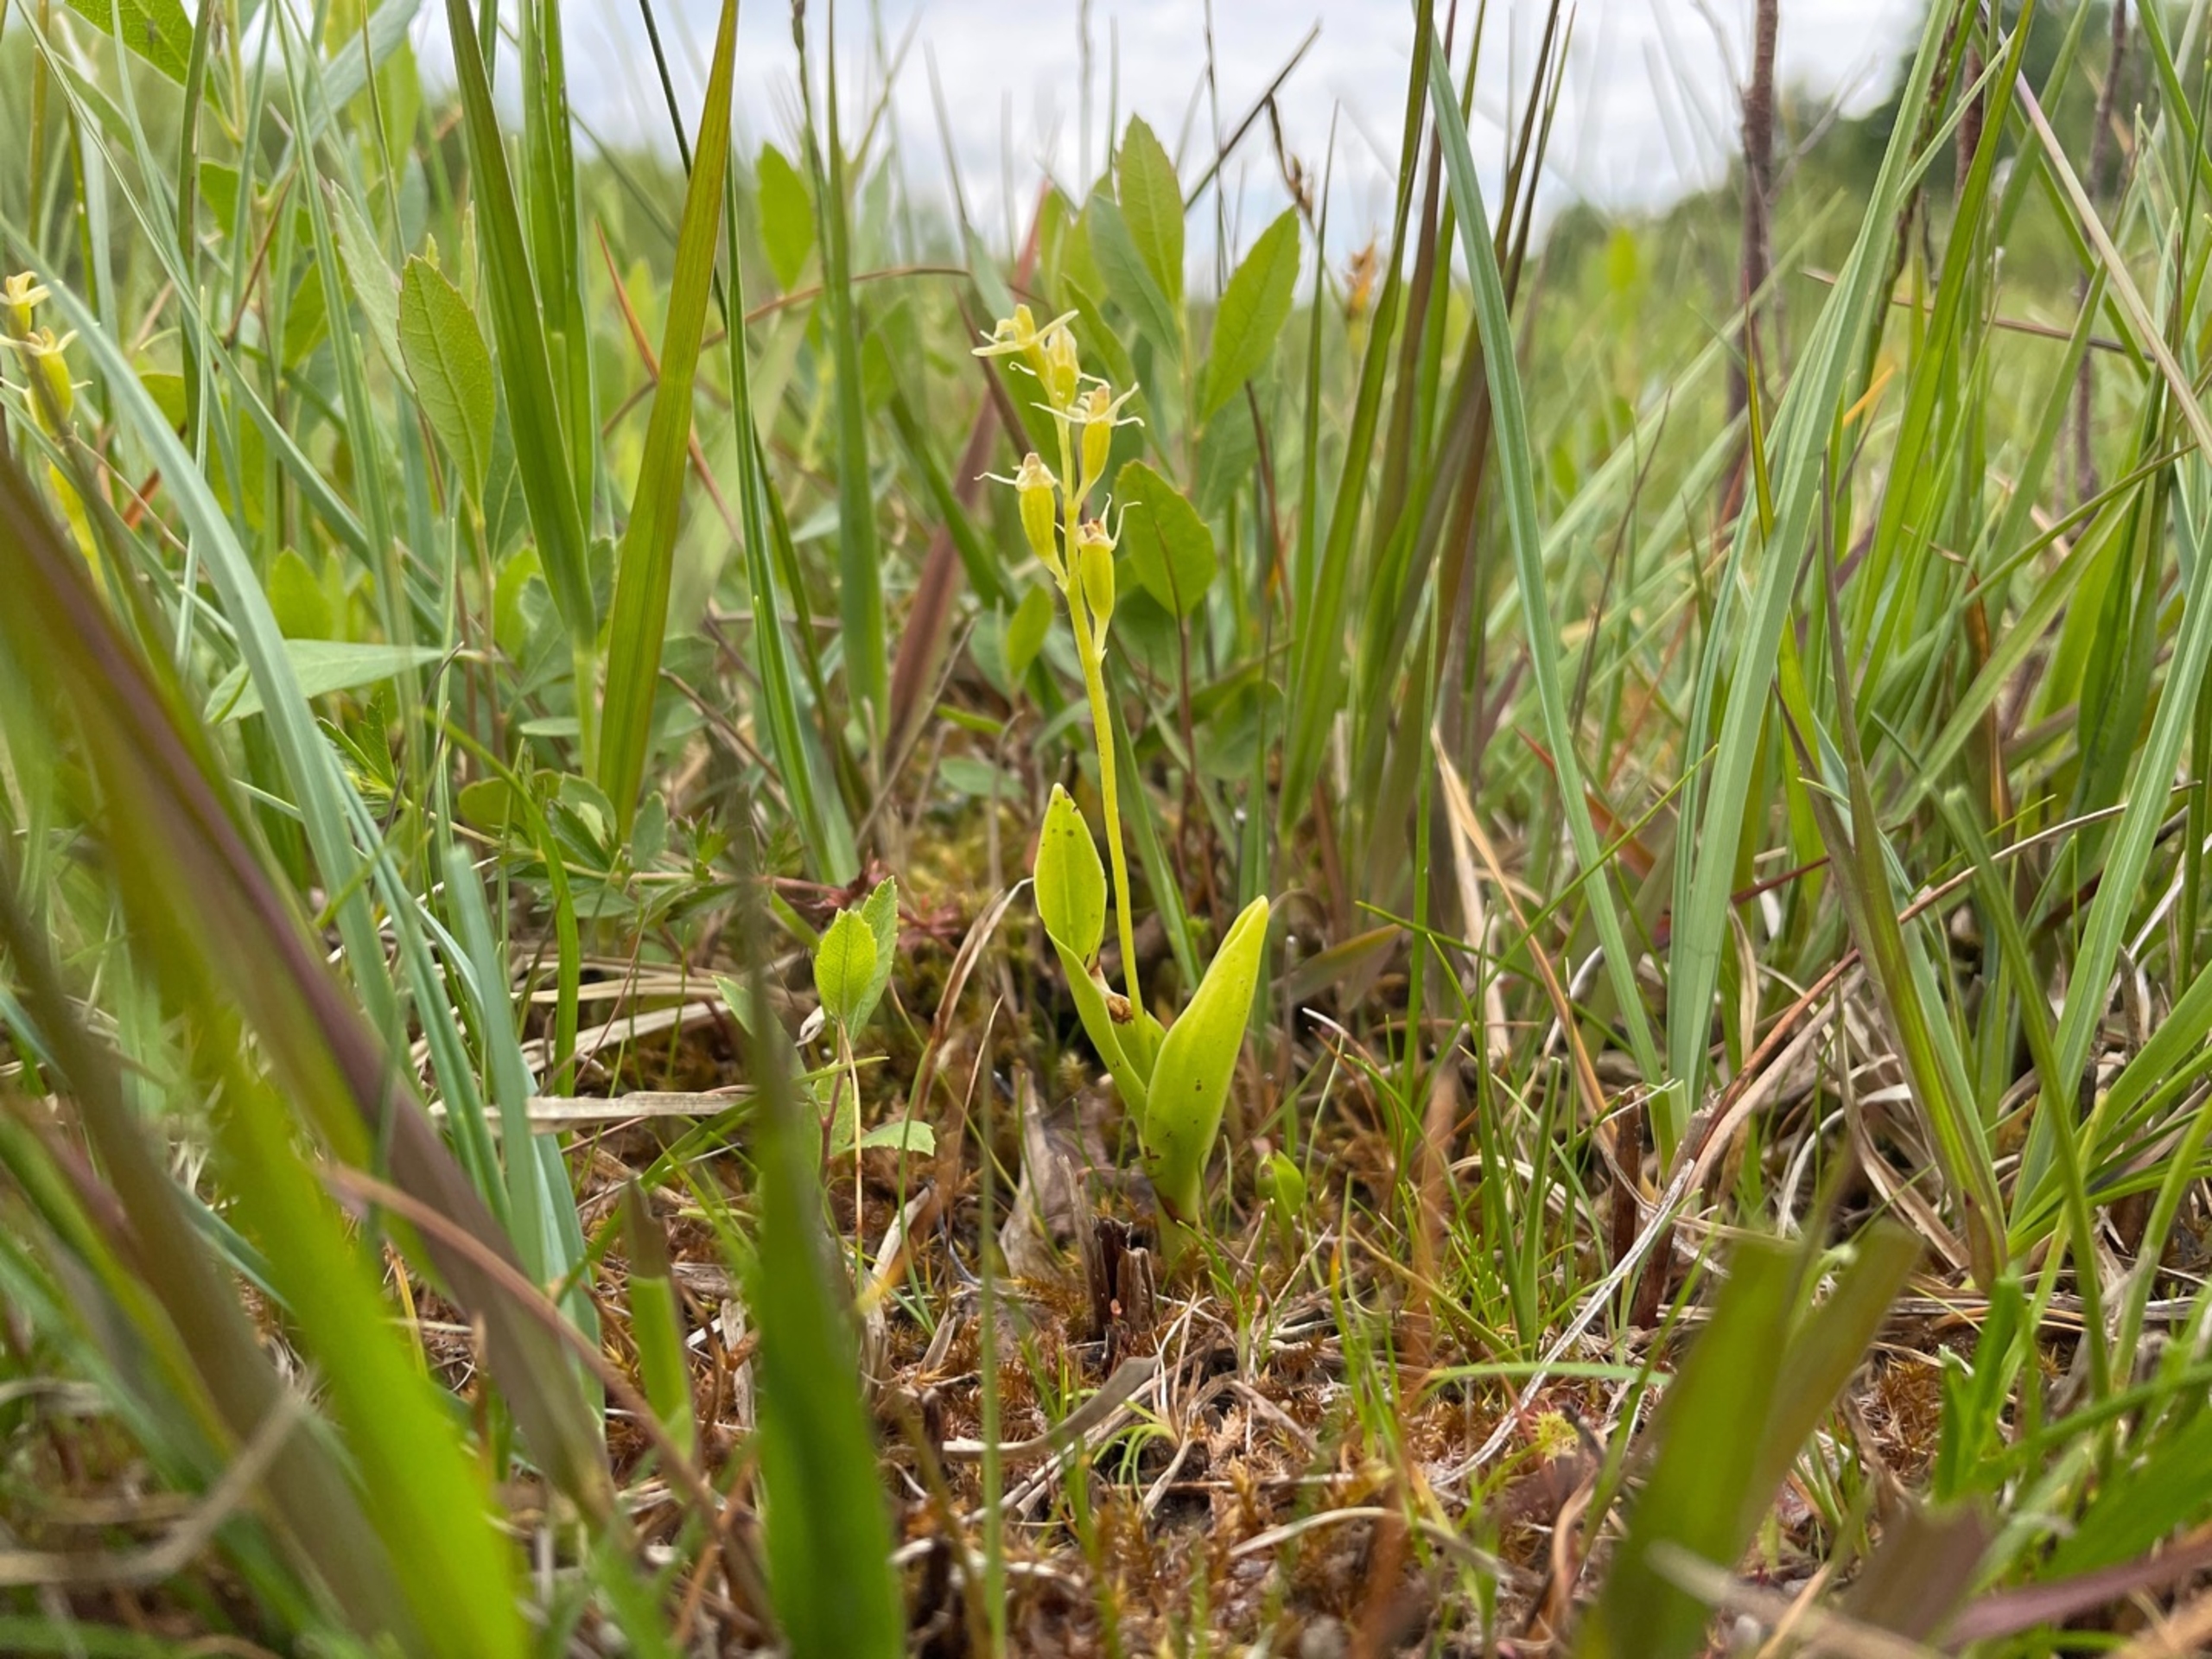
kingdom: Animalia
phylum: Arthropoda
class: Insecta
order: Coleoptera
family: Curculionidae
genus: Liparis
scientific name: Liparis loeselii
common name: Mygblomst
